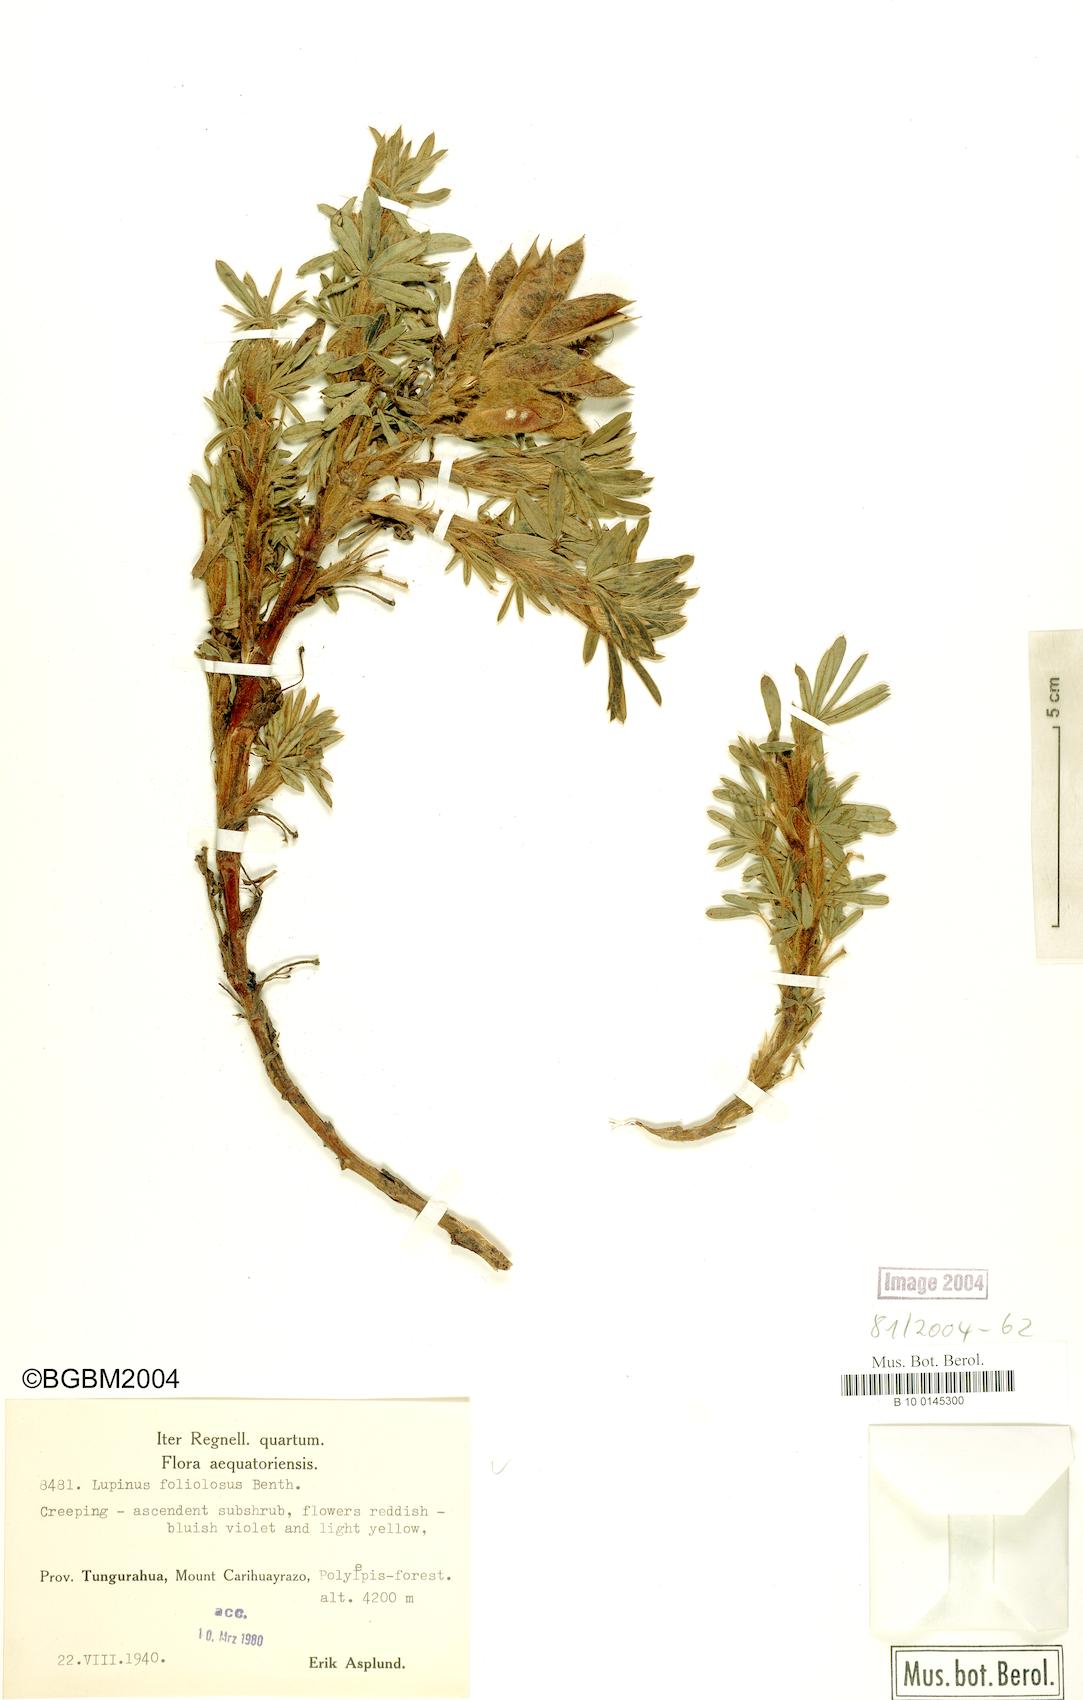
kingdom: Plantae
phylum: Tracheophyta
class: Magnoliopsida
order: Fabales
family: Fabaceae
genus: Lupinus
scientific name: Lupinus argenteus
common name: Silvery lupine
